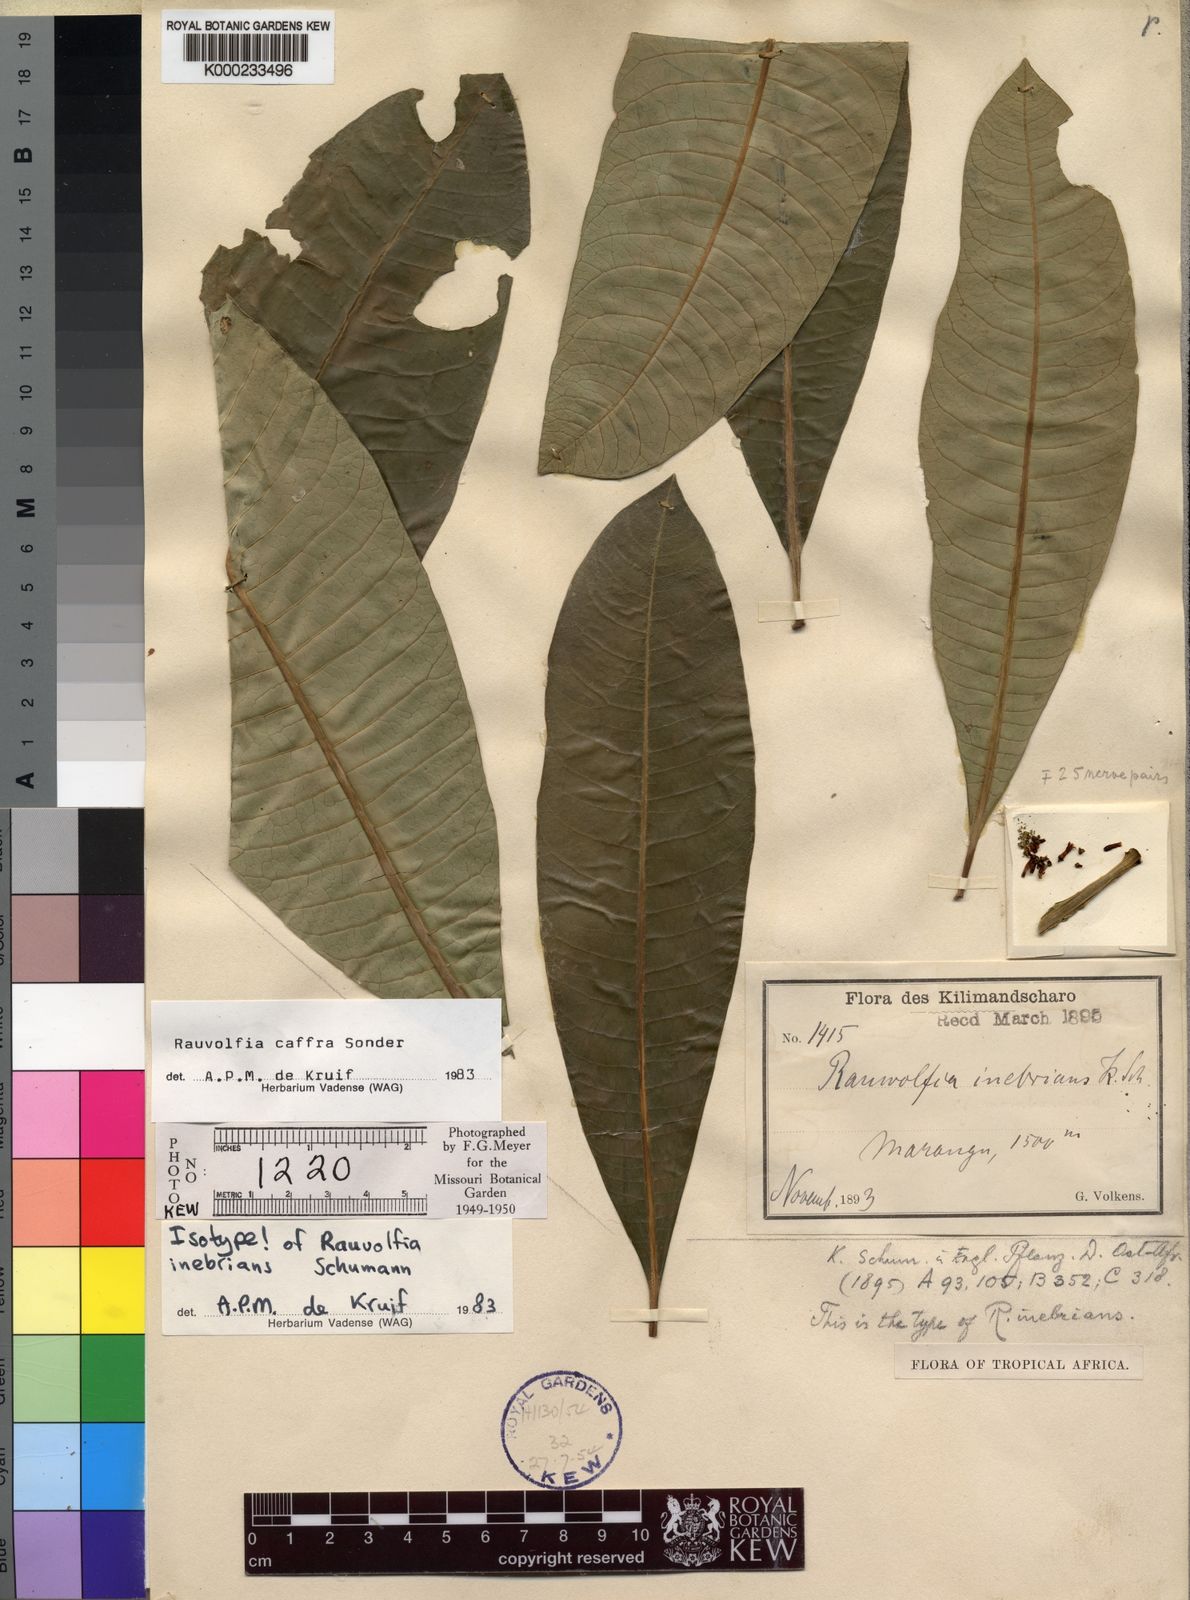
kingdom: Plantae
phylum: Tracheophyta
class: Magnoliopsida
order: Gentianales
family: Apocynaceae
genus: Rauvolfia
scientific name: Rauvolfia caffra
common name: Quininetree
